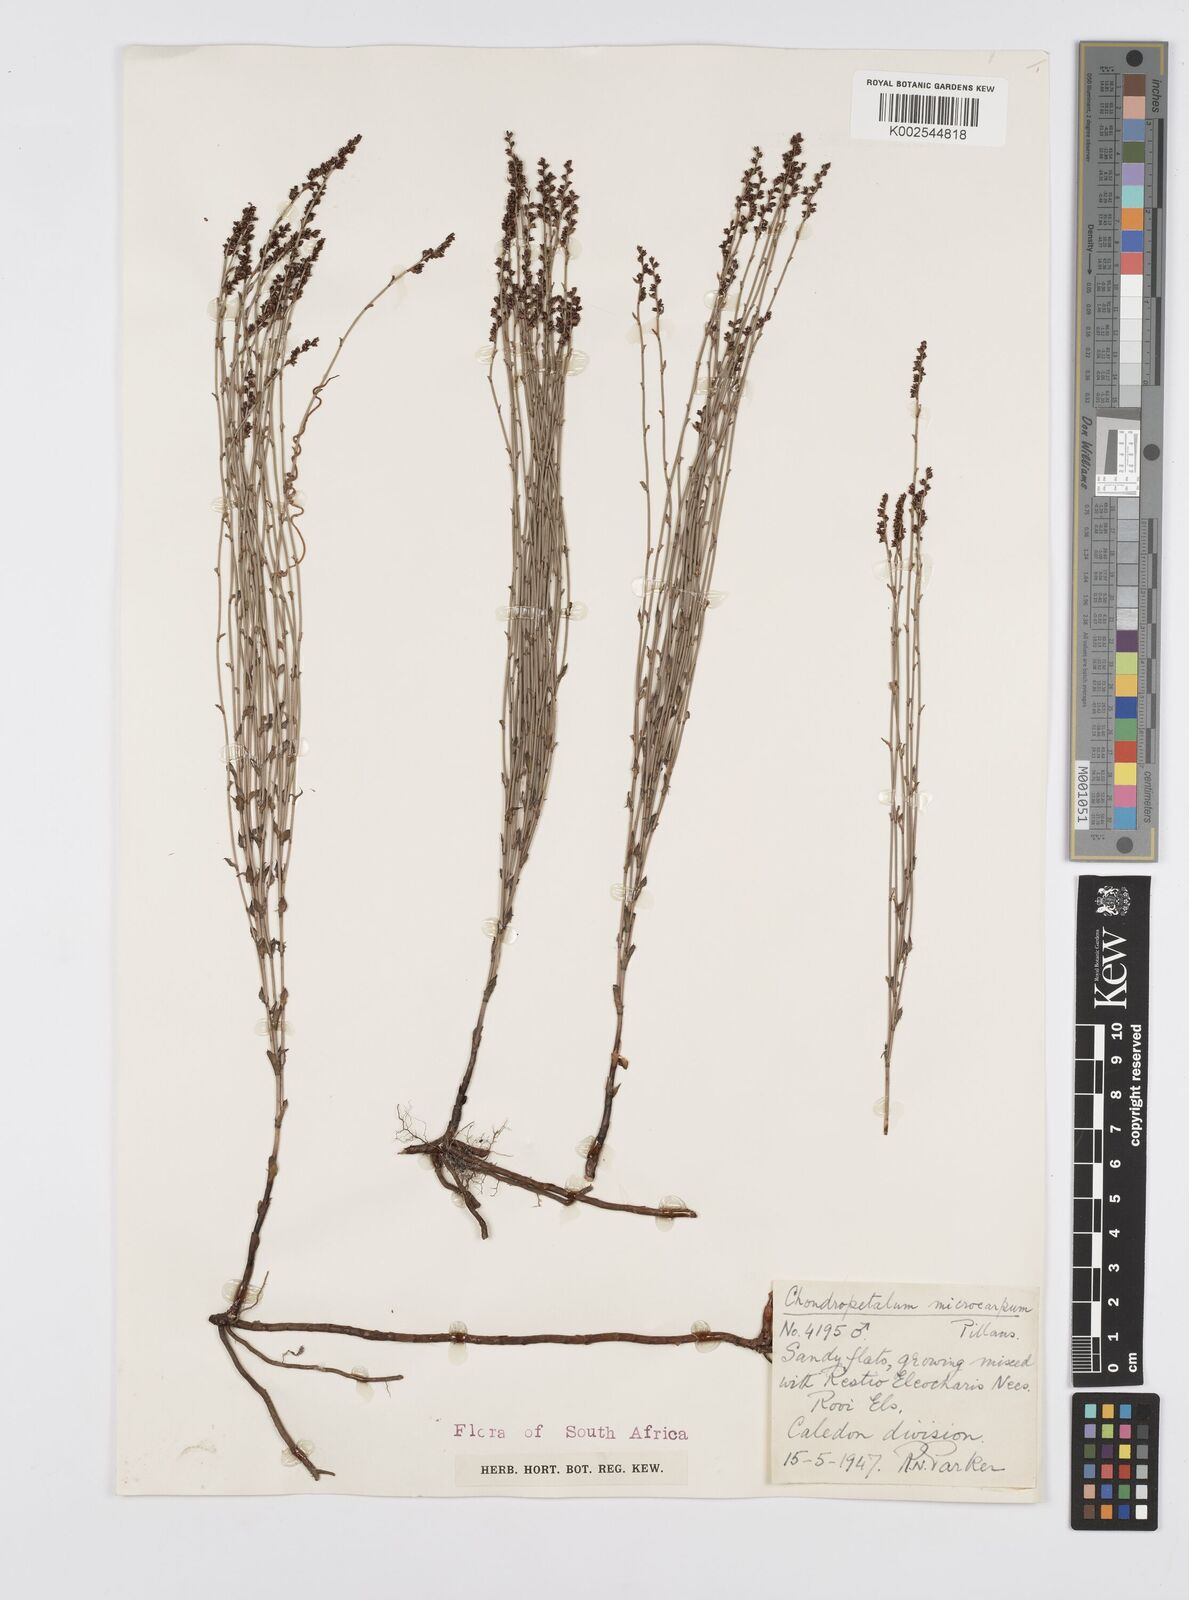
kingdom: Plantae
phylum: Tracheophyta
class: Liliopsida
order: Poales
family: Restionaceae
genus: Elegia
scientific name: Elegia microcarpa
